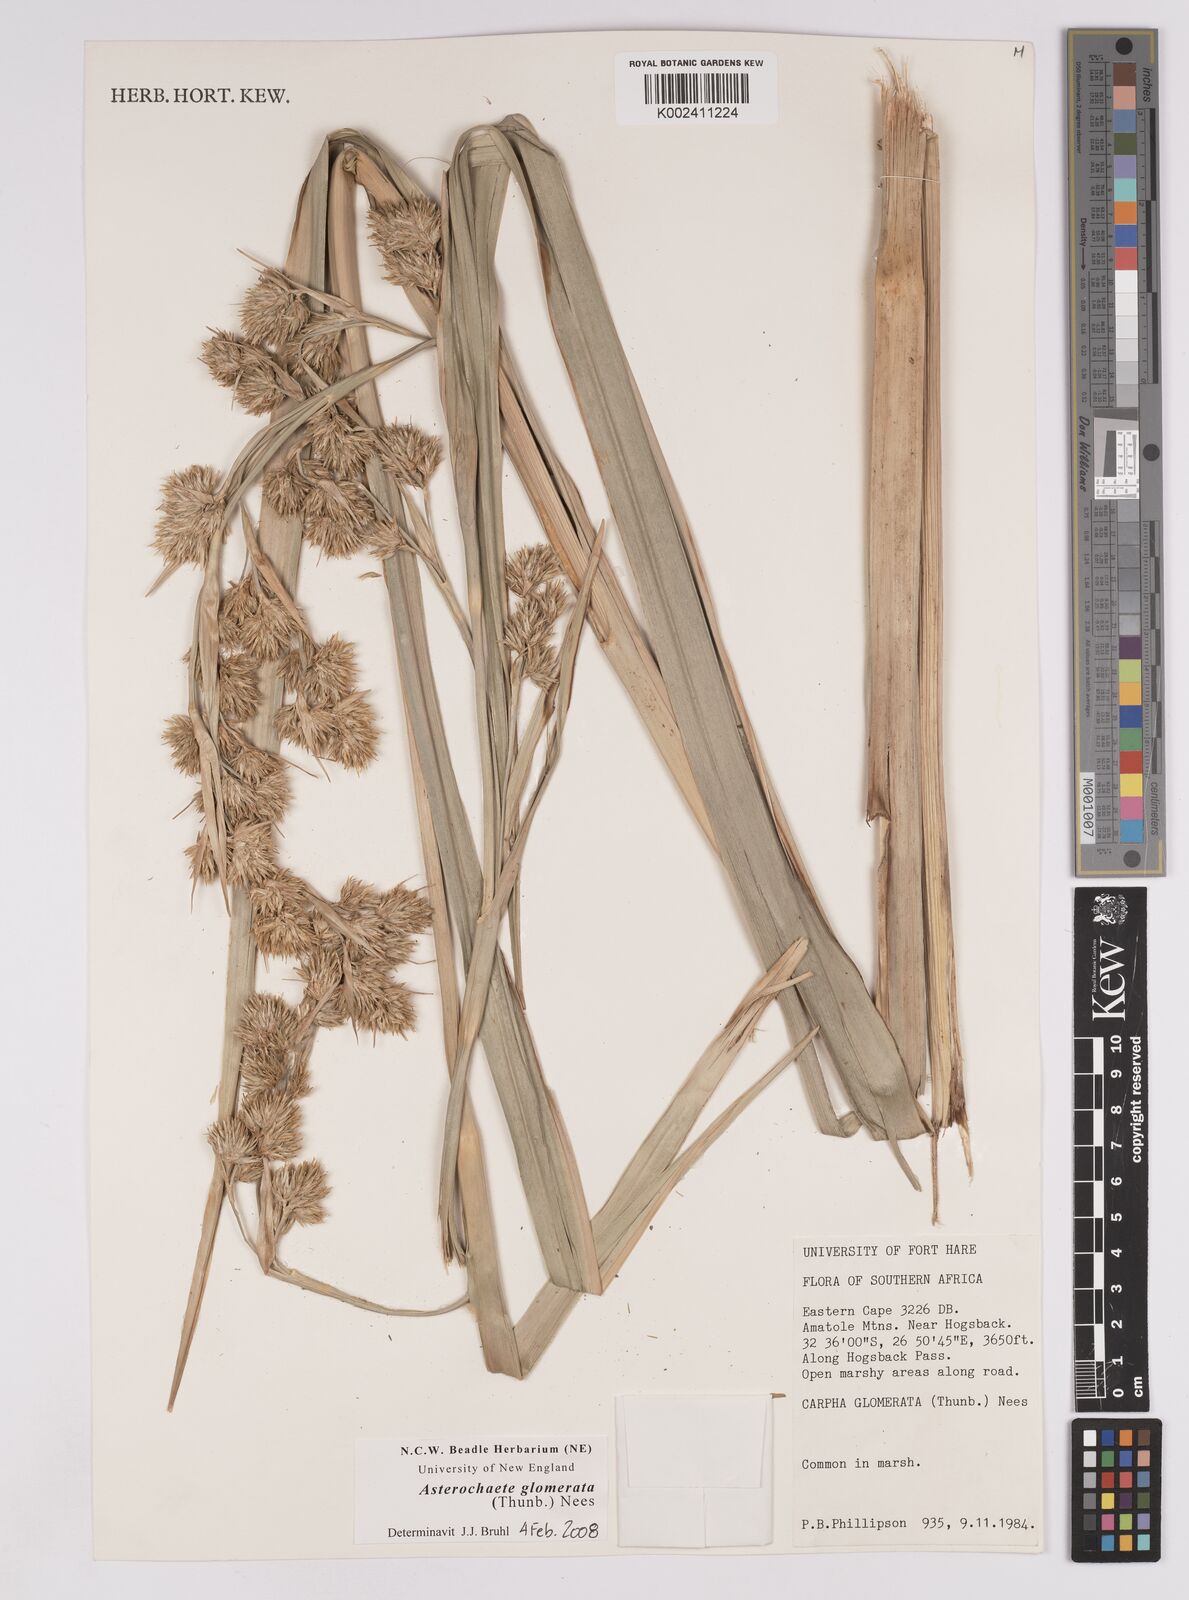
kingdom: Plantae
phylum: Tracheophyta
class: Liliopsida
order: Poales
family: Cyperaceae
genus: Carpha
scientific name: Carpha glomerata
